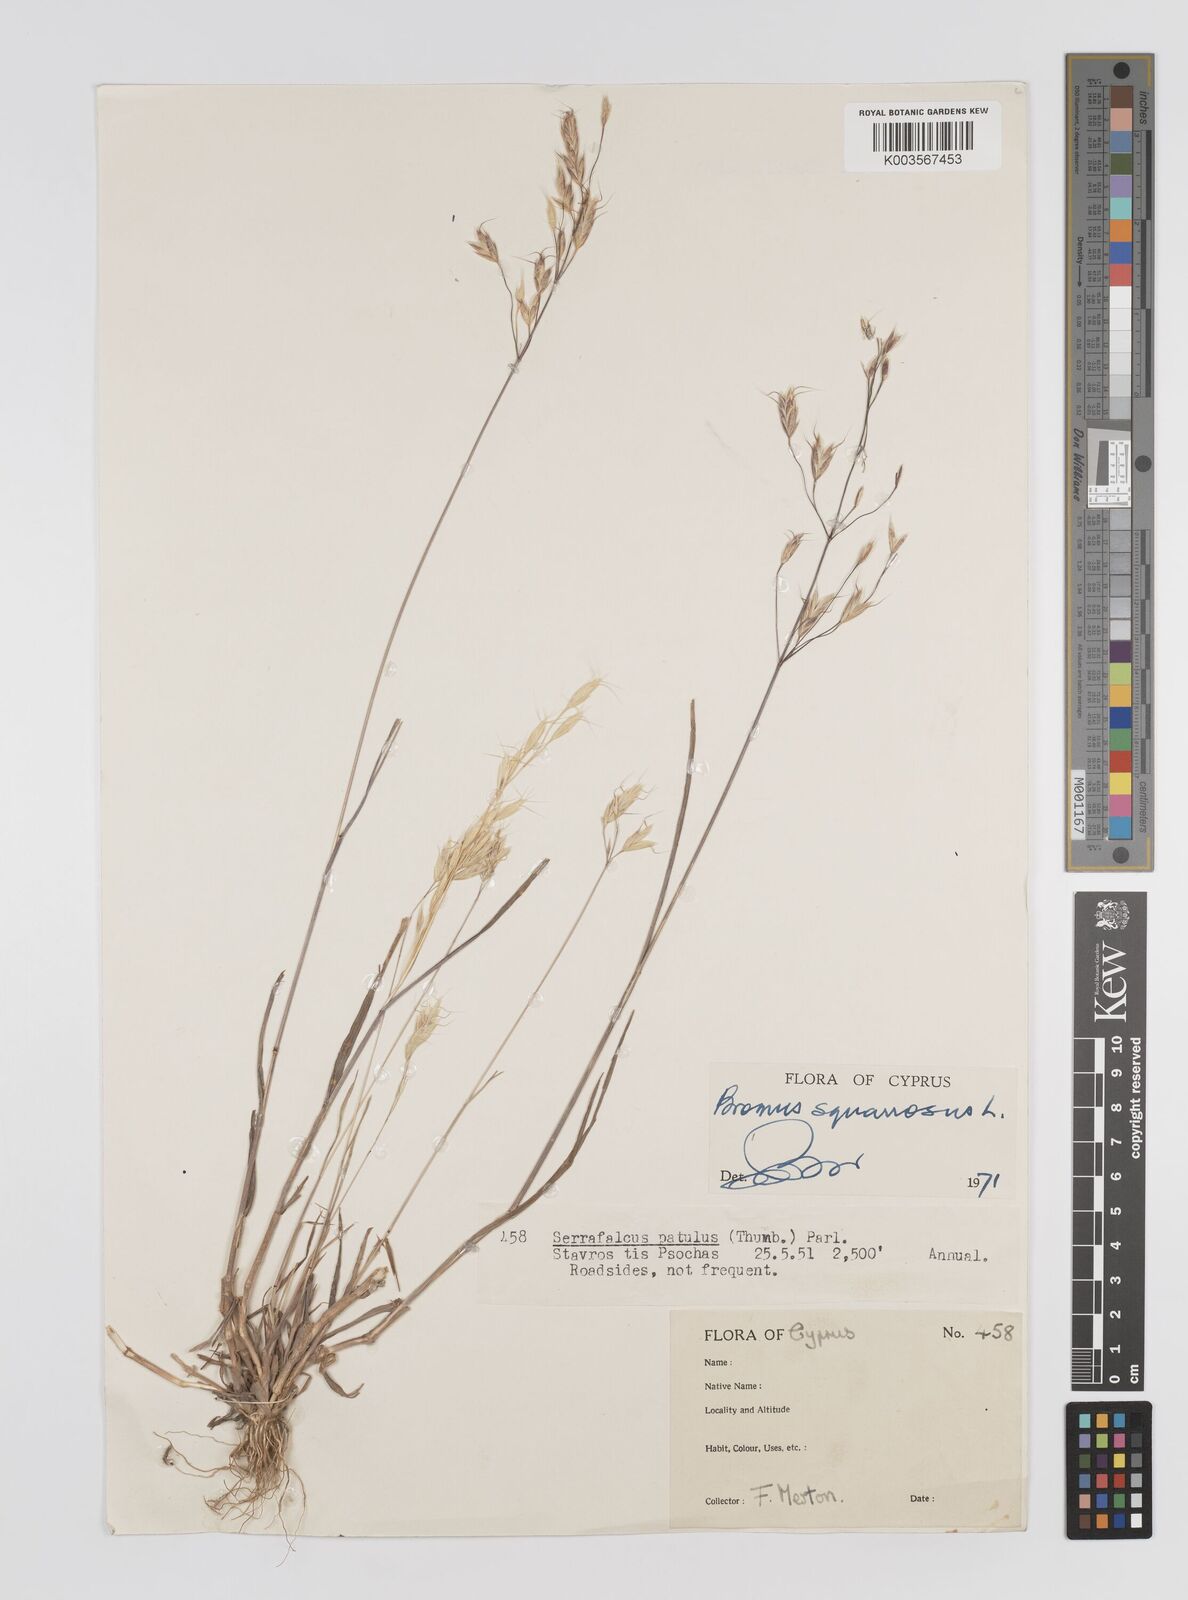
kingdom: Plantae
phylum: Tracheophyta
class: Liliopsida
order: Poales
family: Poaceae
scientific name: Poaceae
